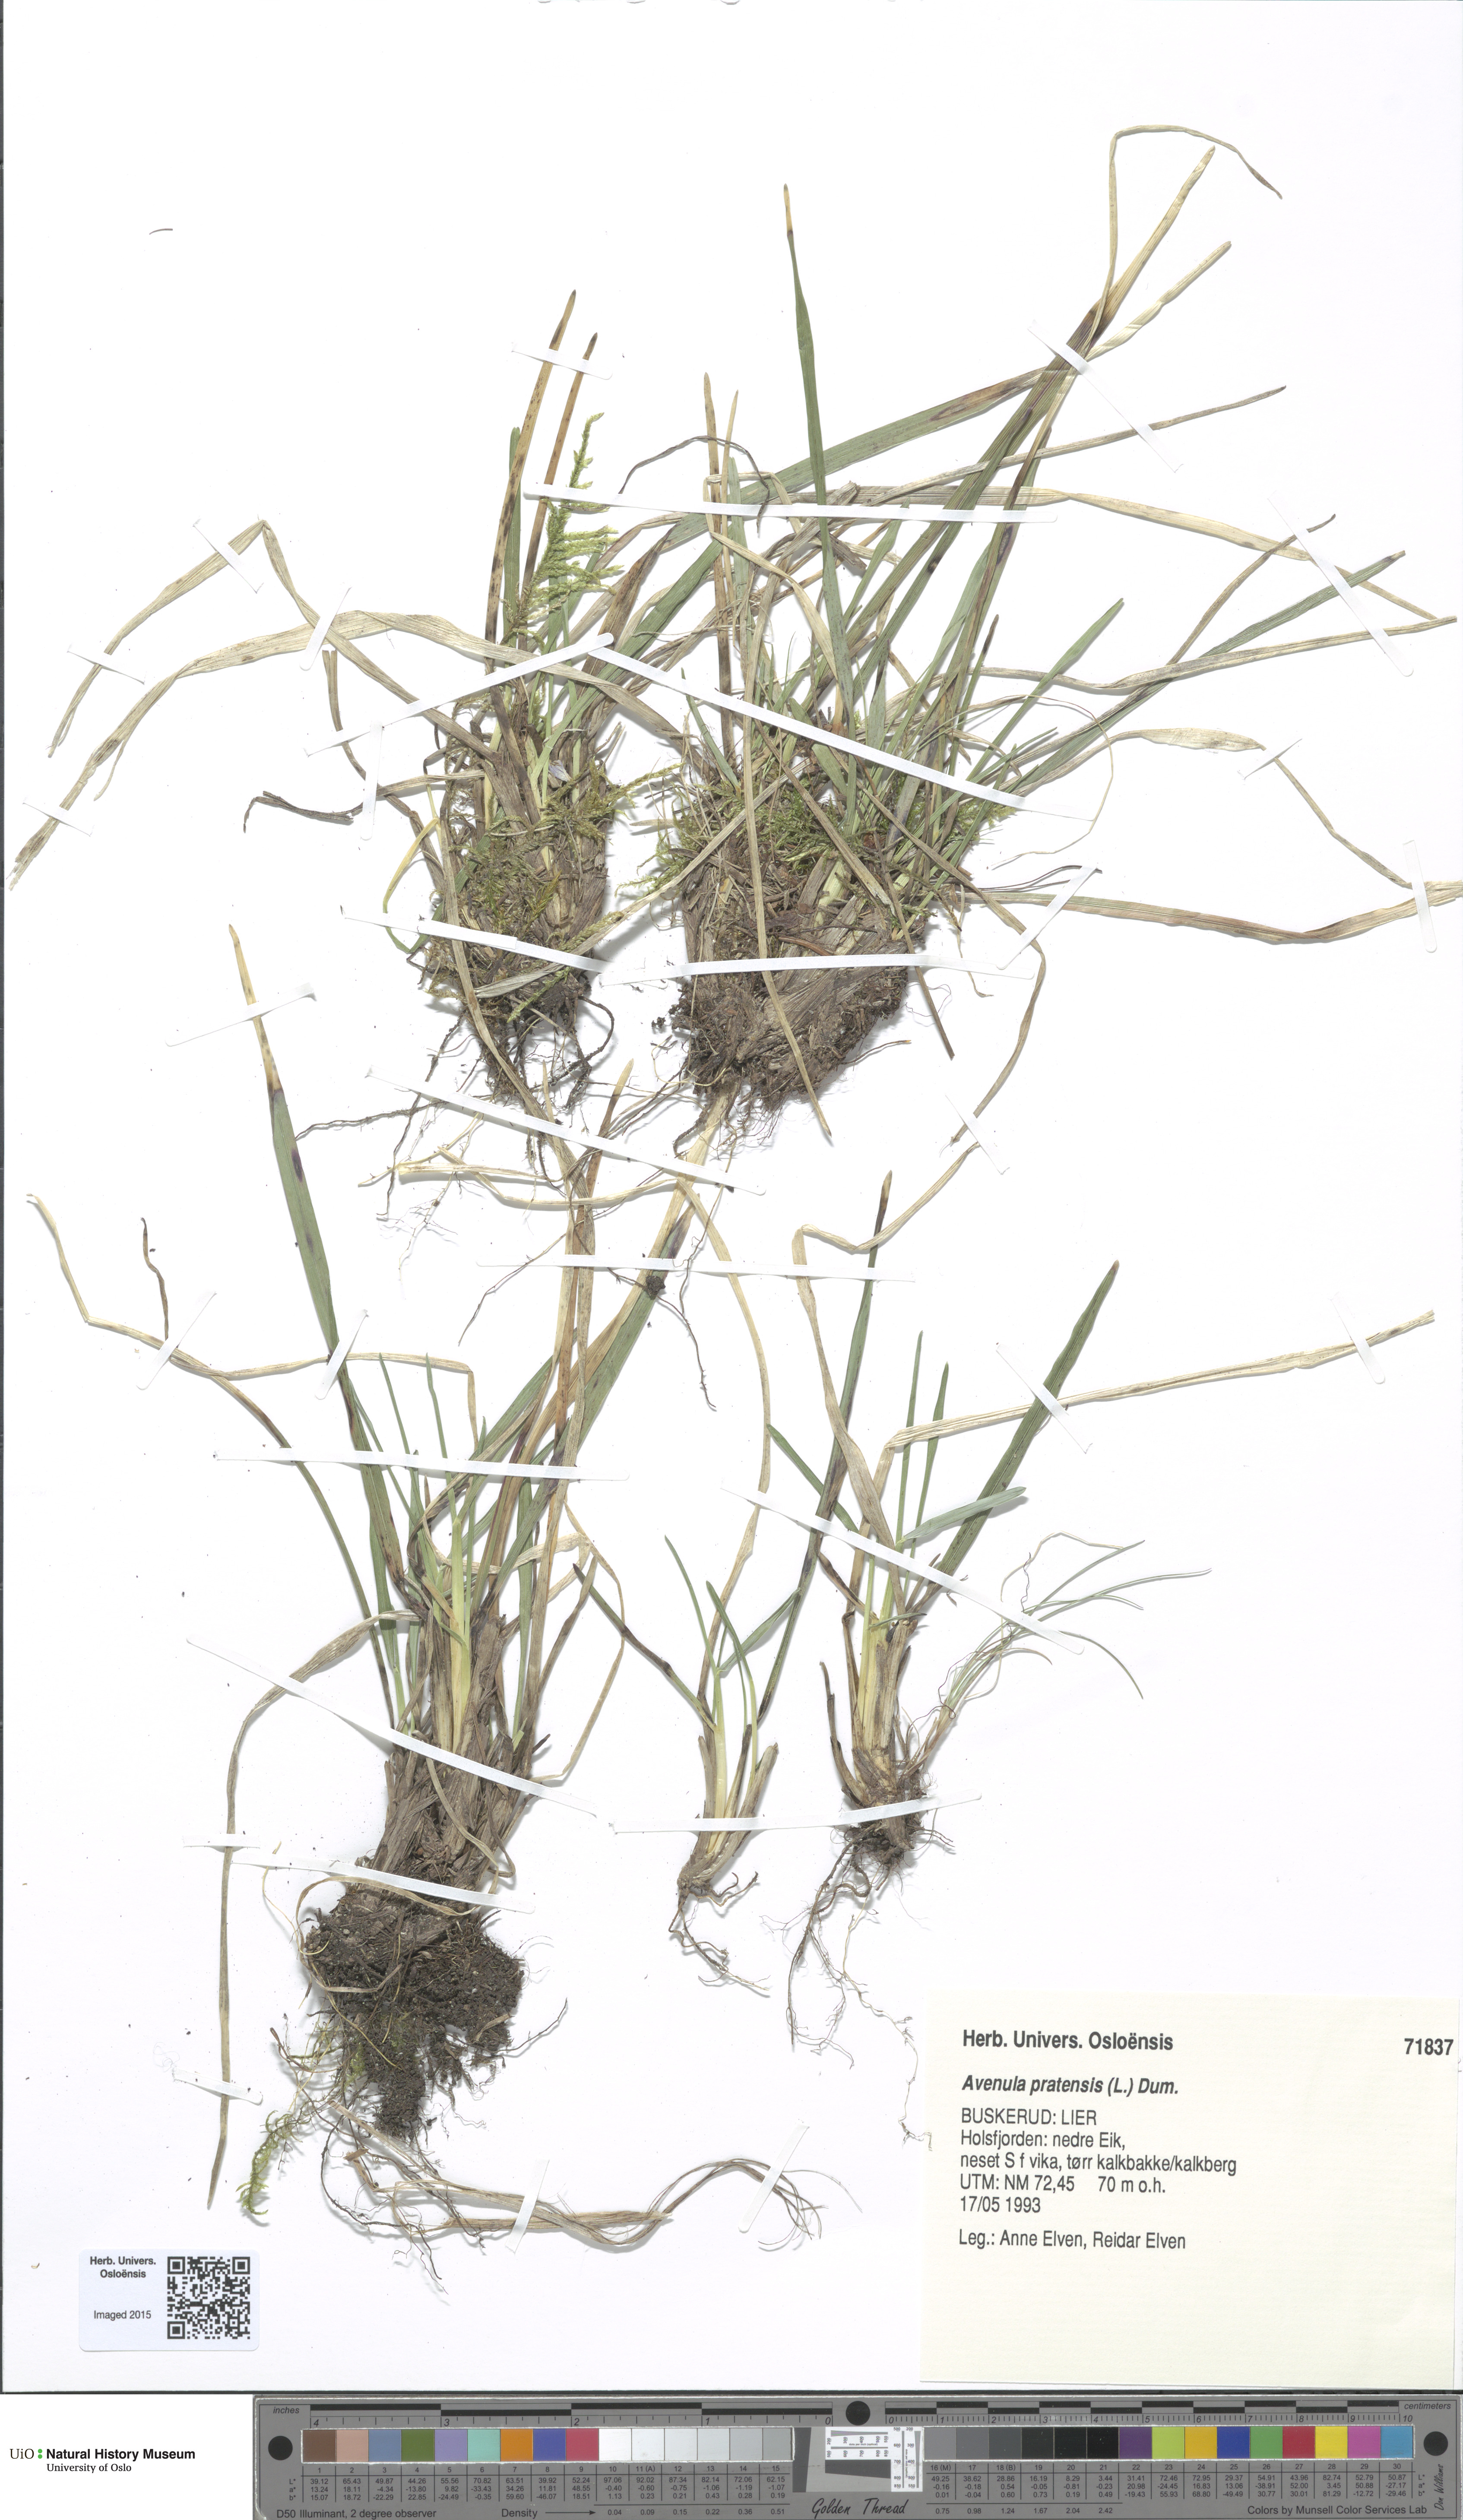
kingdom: Plantae
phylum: Tracheophyta
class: Liliopsida
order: Poales
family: Poaceae
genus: Helictochloa
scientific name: Helictochloa pratensis
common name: Meadow oat grass
